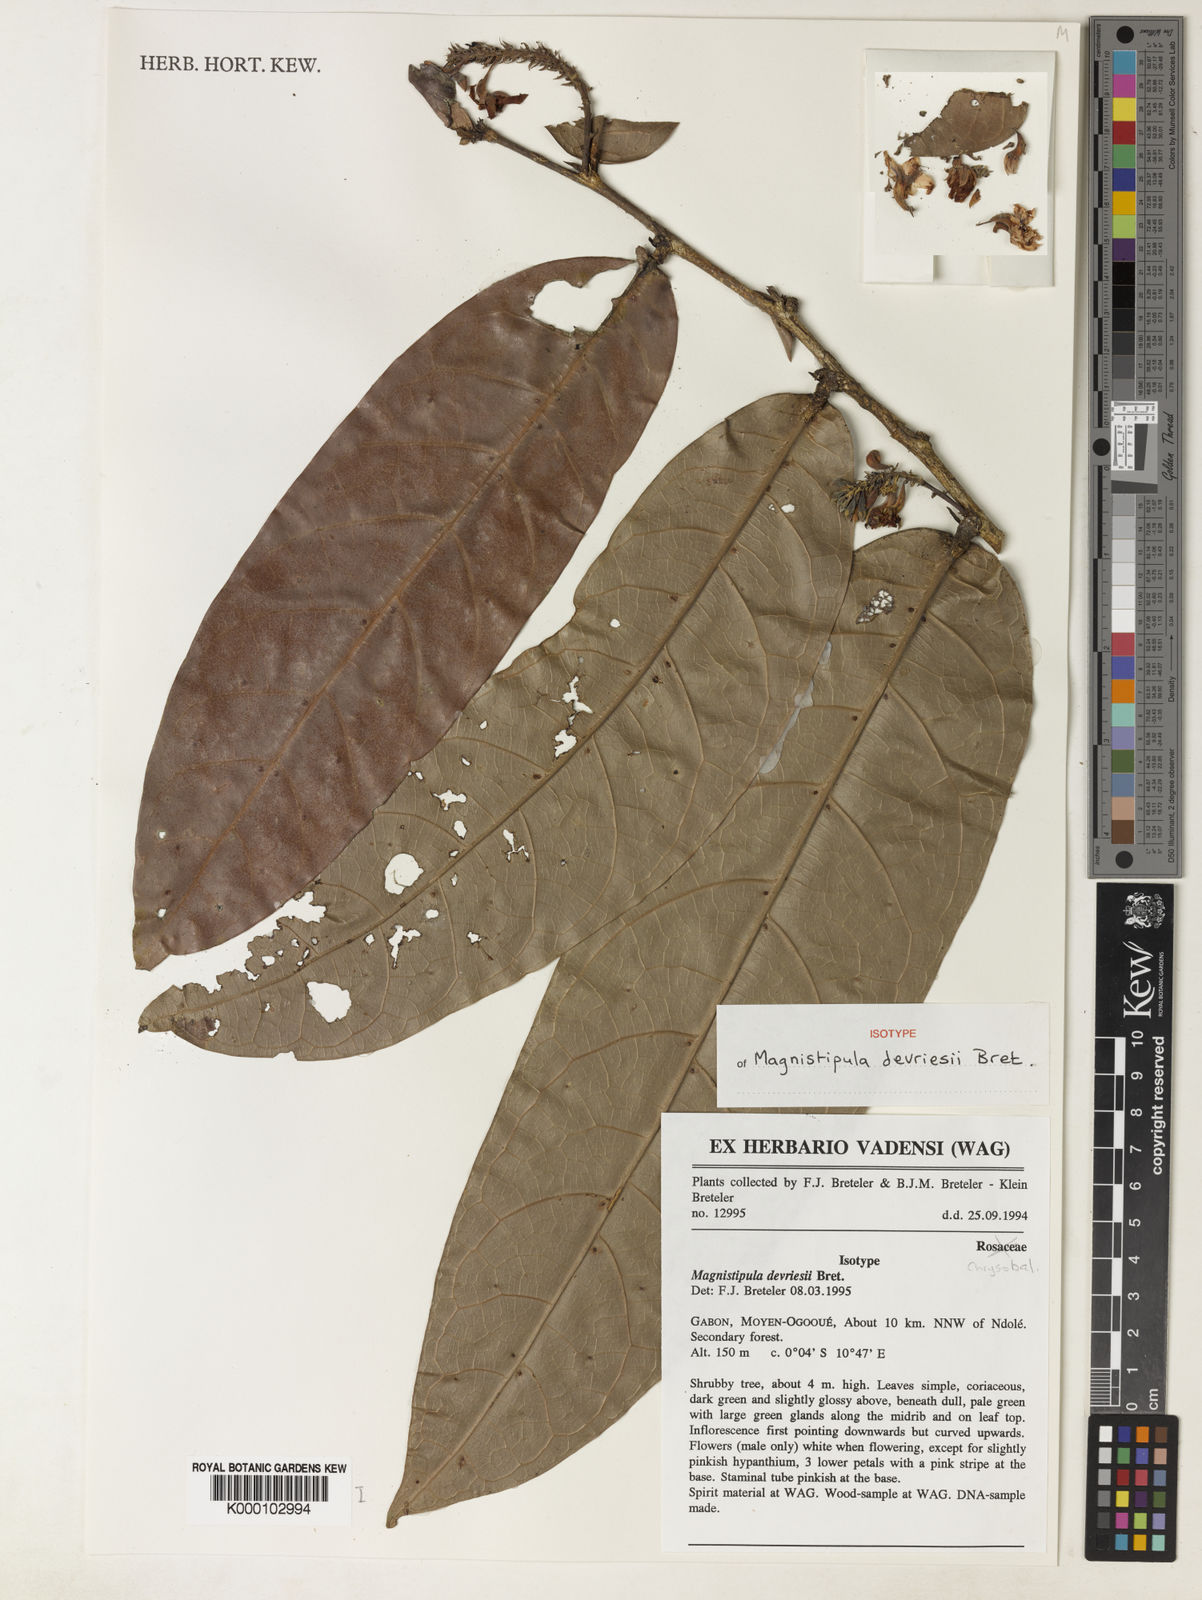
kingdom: Plantae
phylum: Tracheophyta
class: Magnoliopsida
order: Malpighiales
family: Chrysobalanaceae
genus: Magnistipula
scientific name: Magnistipula devriesii
